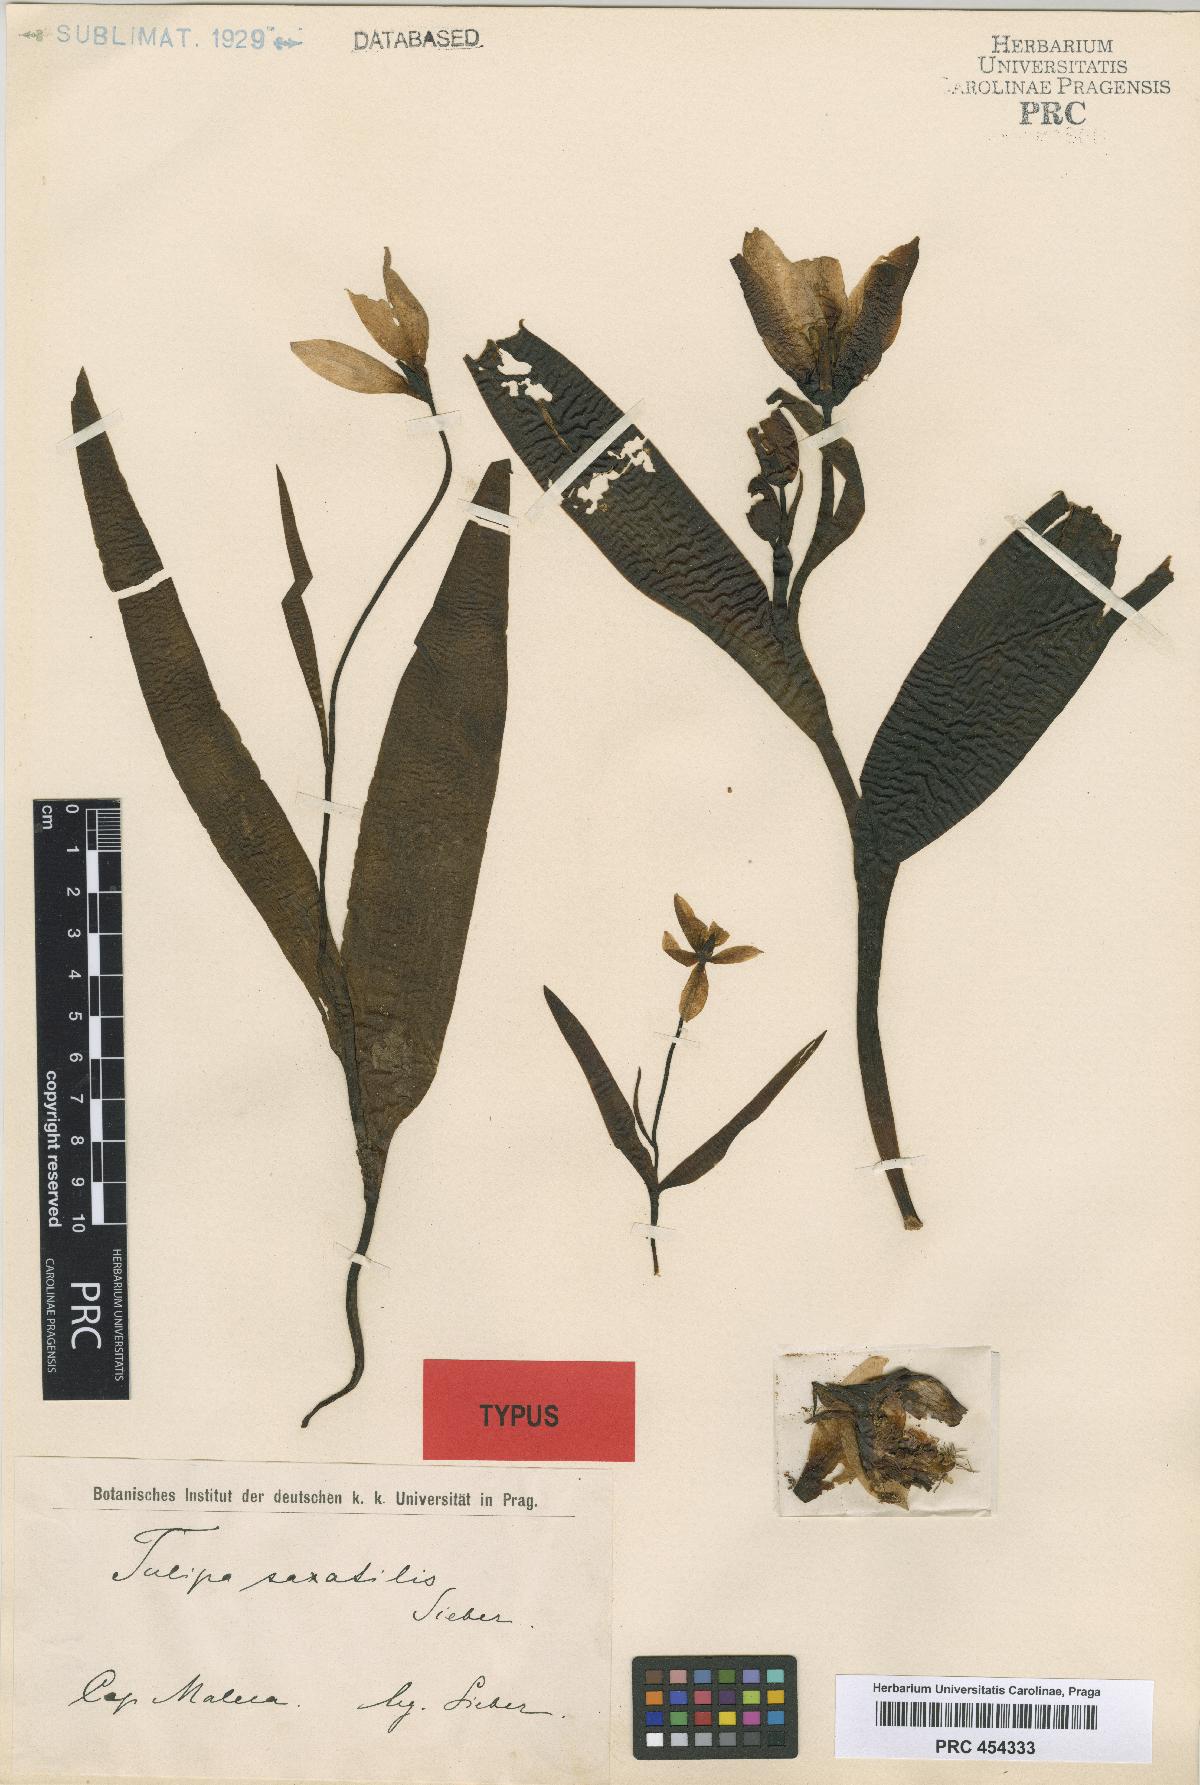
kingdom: Plantae
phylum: Tracheophyta
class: Liliopsida
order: Liliales
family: Liliaceae
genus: Tulipa
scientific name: Tulipa saxatilis
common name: Cretan tulip
